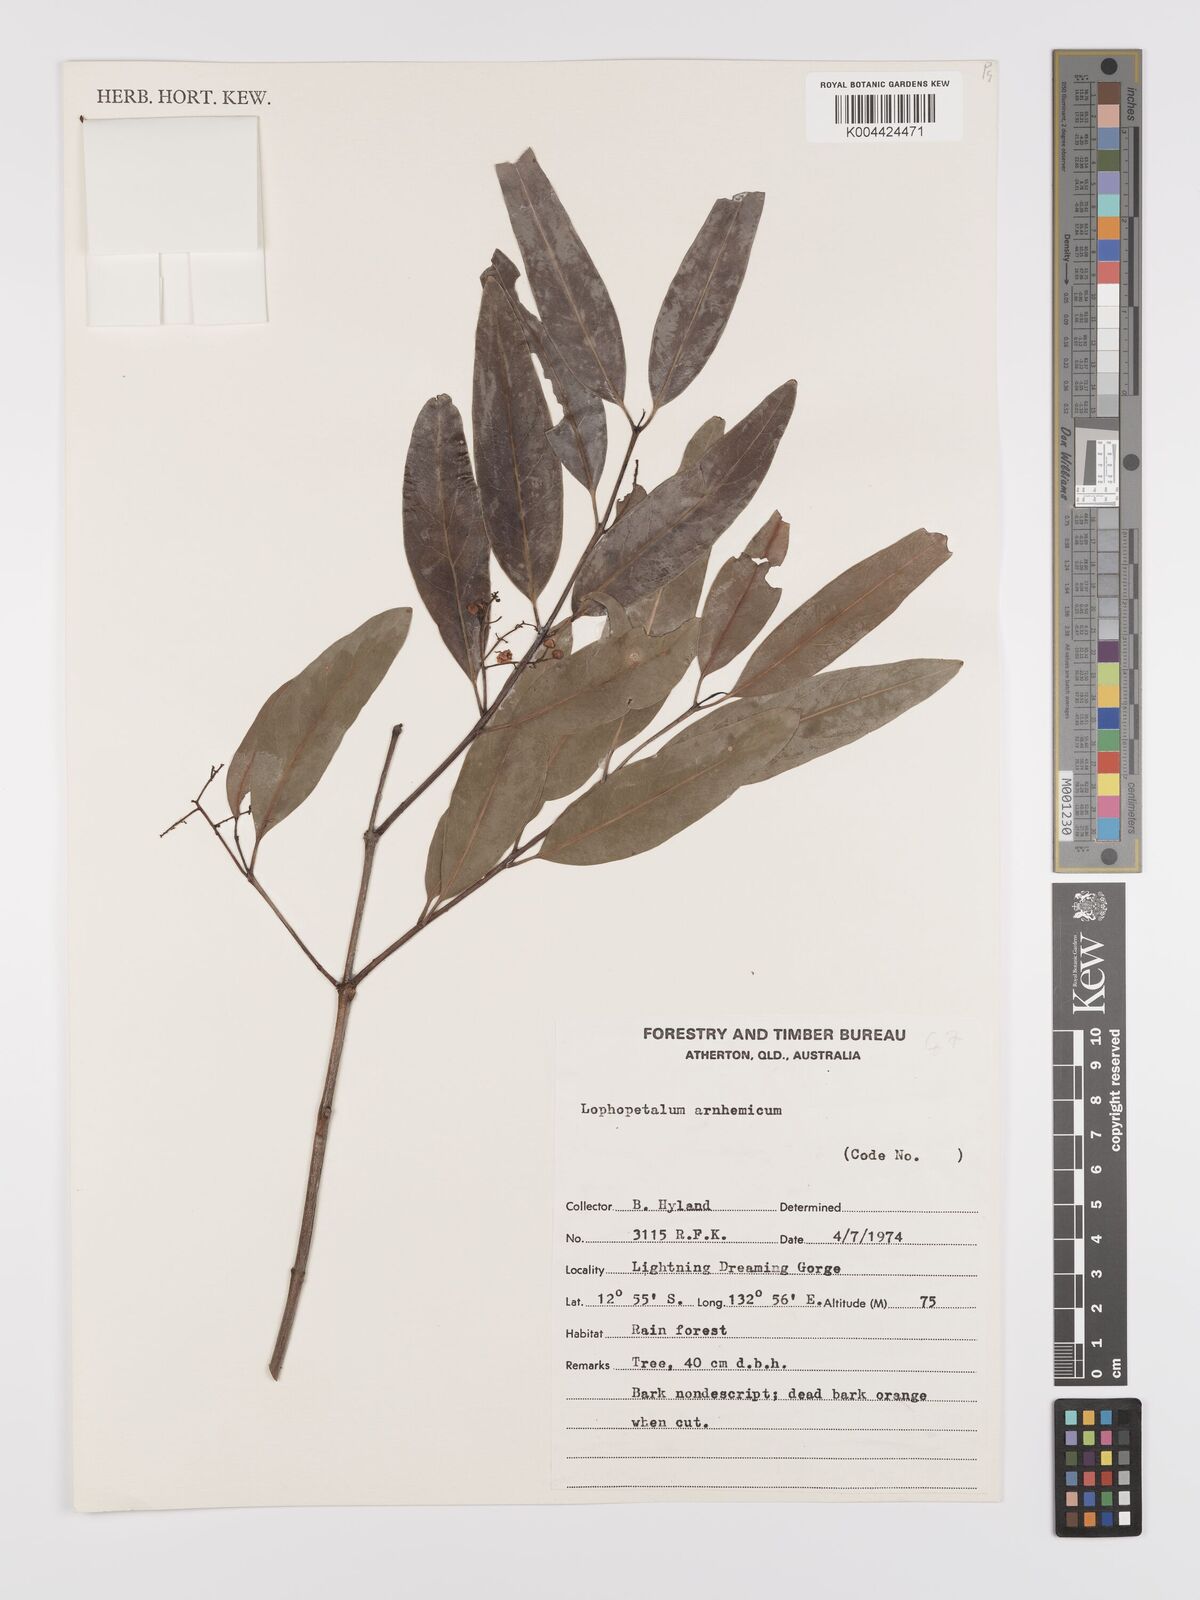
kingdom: Plantae
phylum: Tracheophyta
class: Magnoliopsida
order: Celastrales
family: Celastraceae
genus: Lophopetalum
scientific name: Lophopetalum arnhemicum
